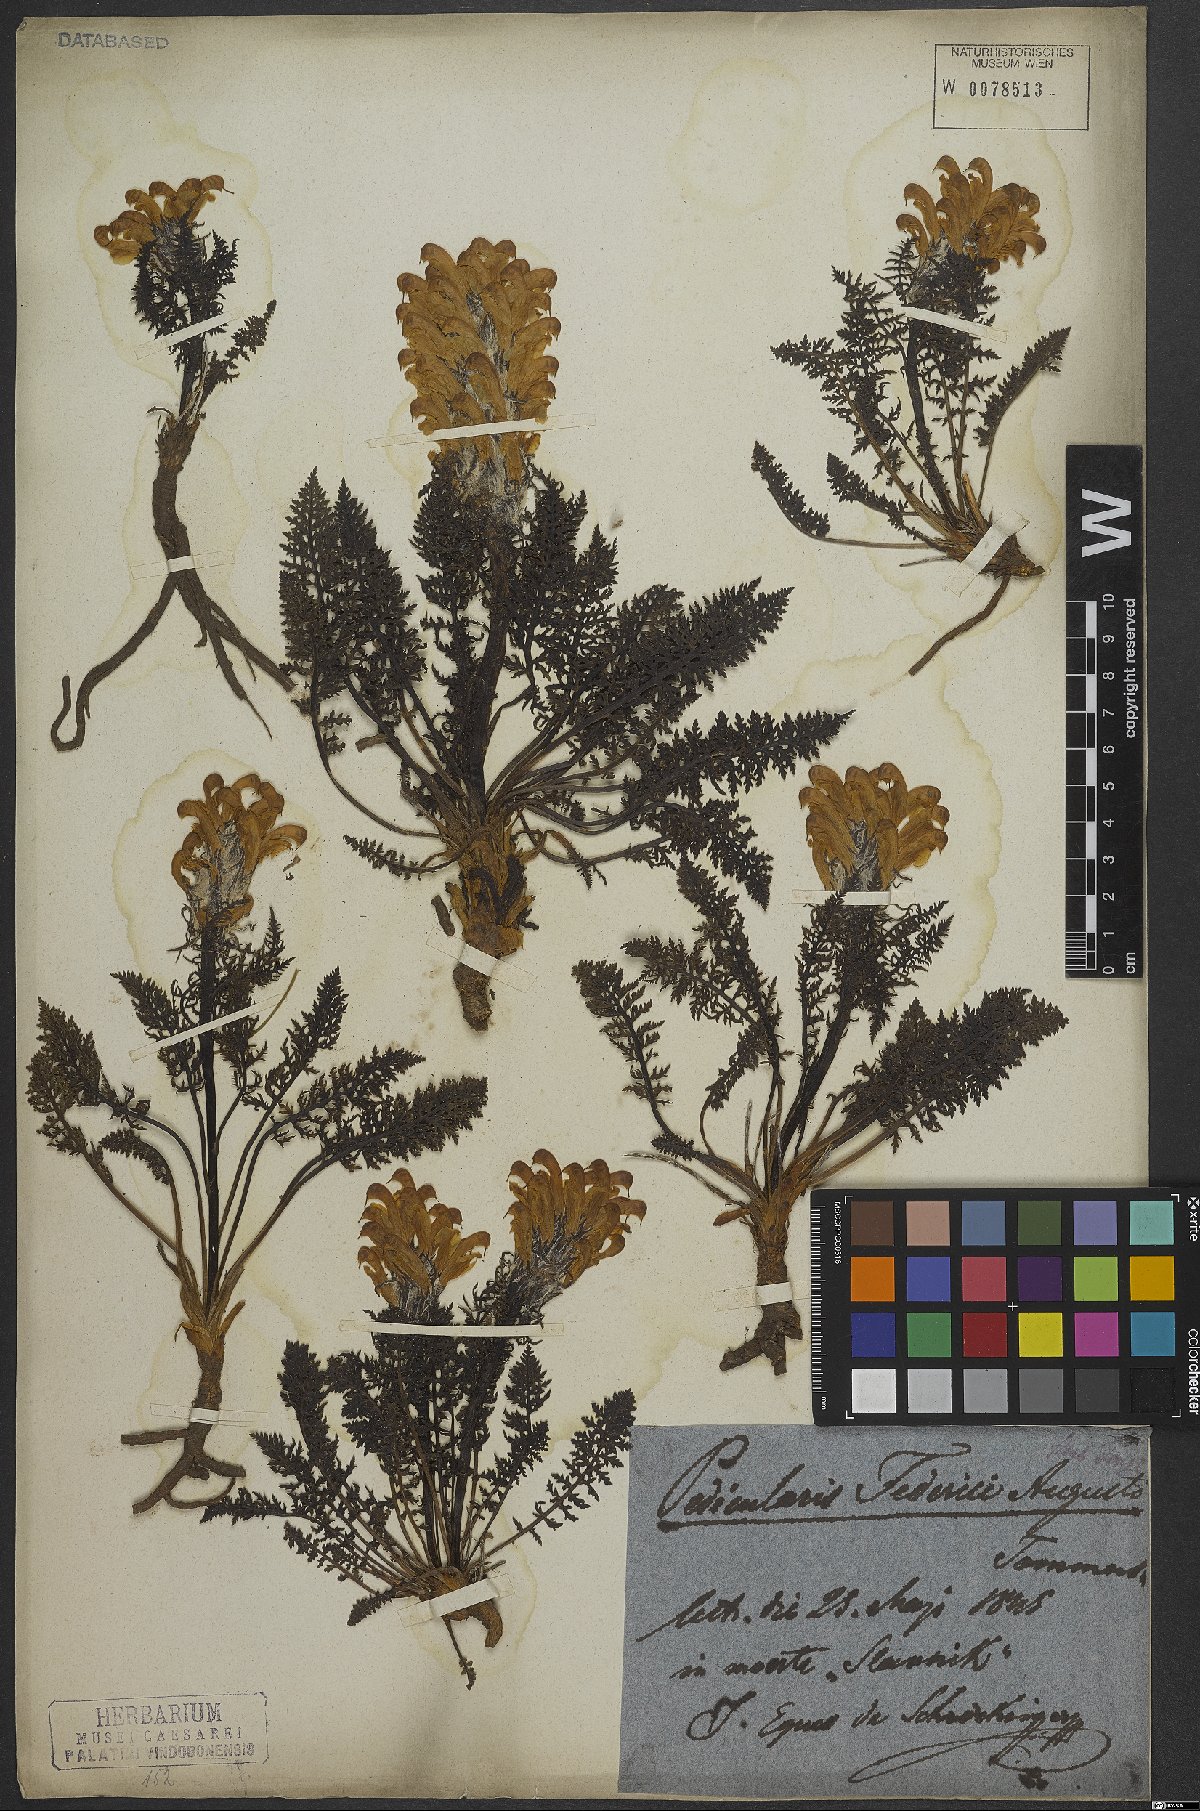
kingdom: Plantae
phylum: Tracheophyta
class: Magnoliopsida
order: Lamiales
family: Orobanchaceae
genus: Pedicularis
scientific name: Pedicularis friderici-augusti
